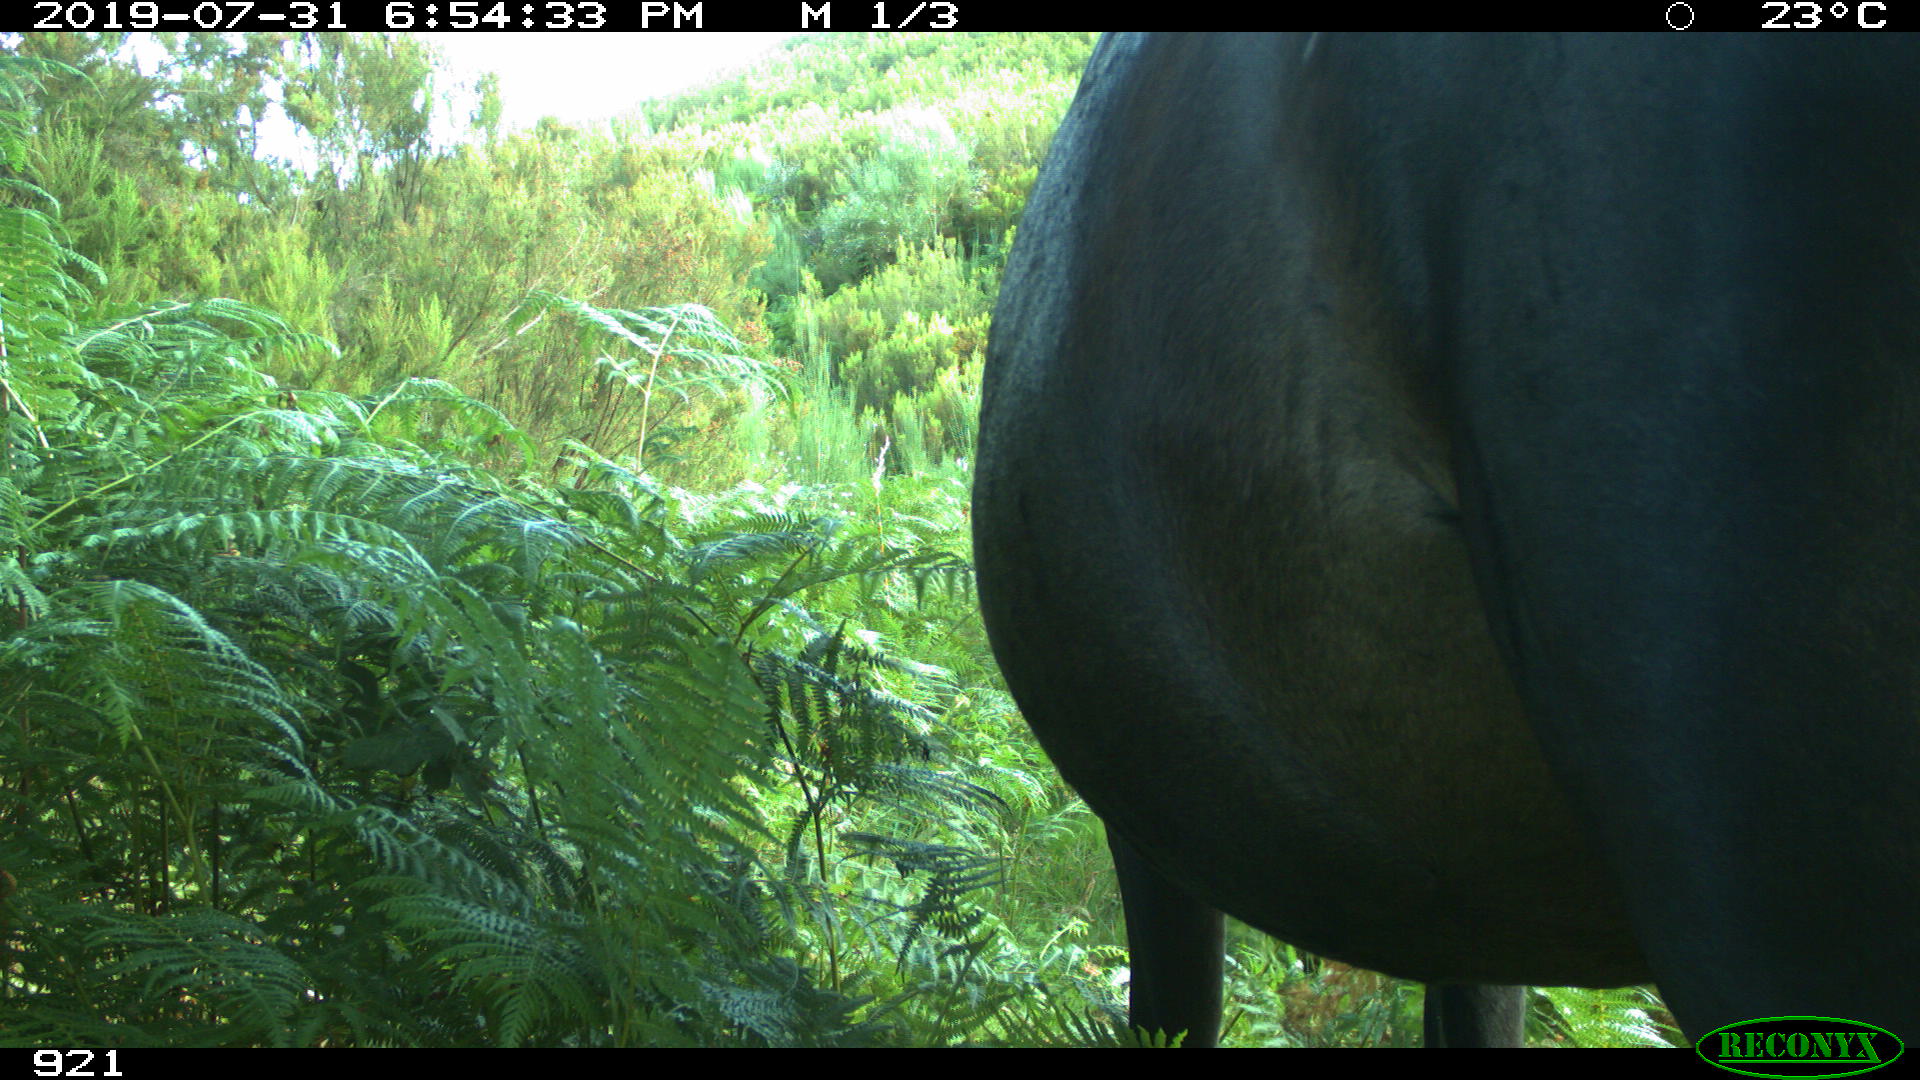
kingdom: Animalia
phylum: Chordata
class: Mammalia
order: Perissodactyla
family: Equidae
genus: Equus
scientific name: Equus caballus
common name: Horse
